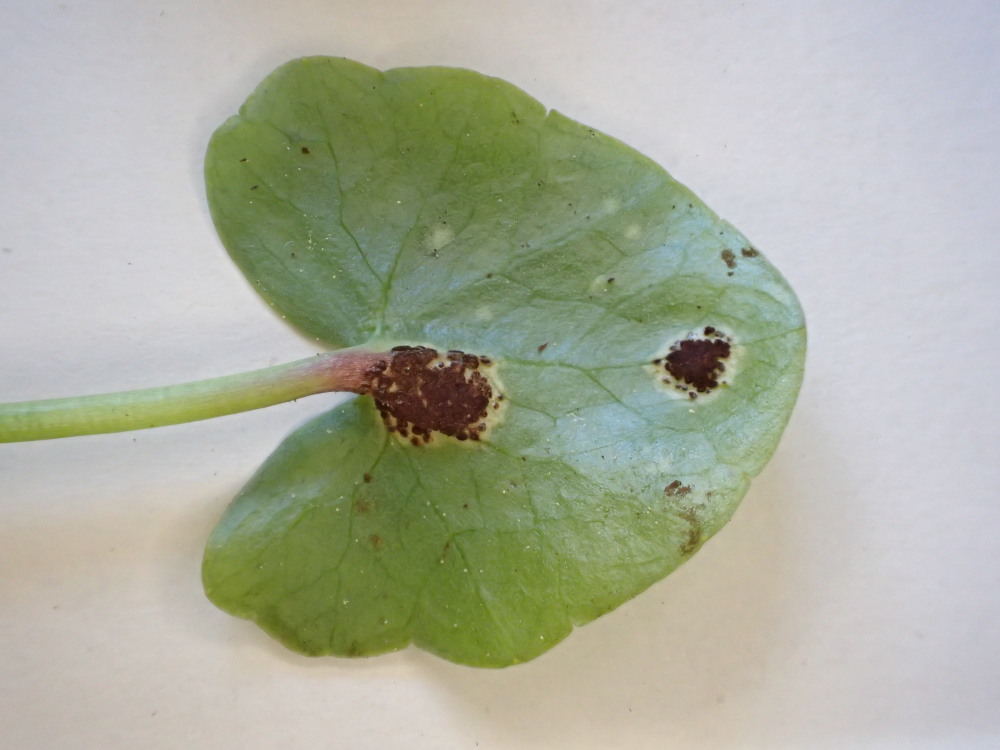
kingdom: Fungi
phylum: Basidiomycota
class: Pucciniomycetes
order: Pucciniales
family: Pucciniaceae
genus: Uromyces
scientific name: Uromyces ficariae
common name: vorterod-encellerust
